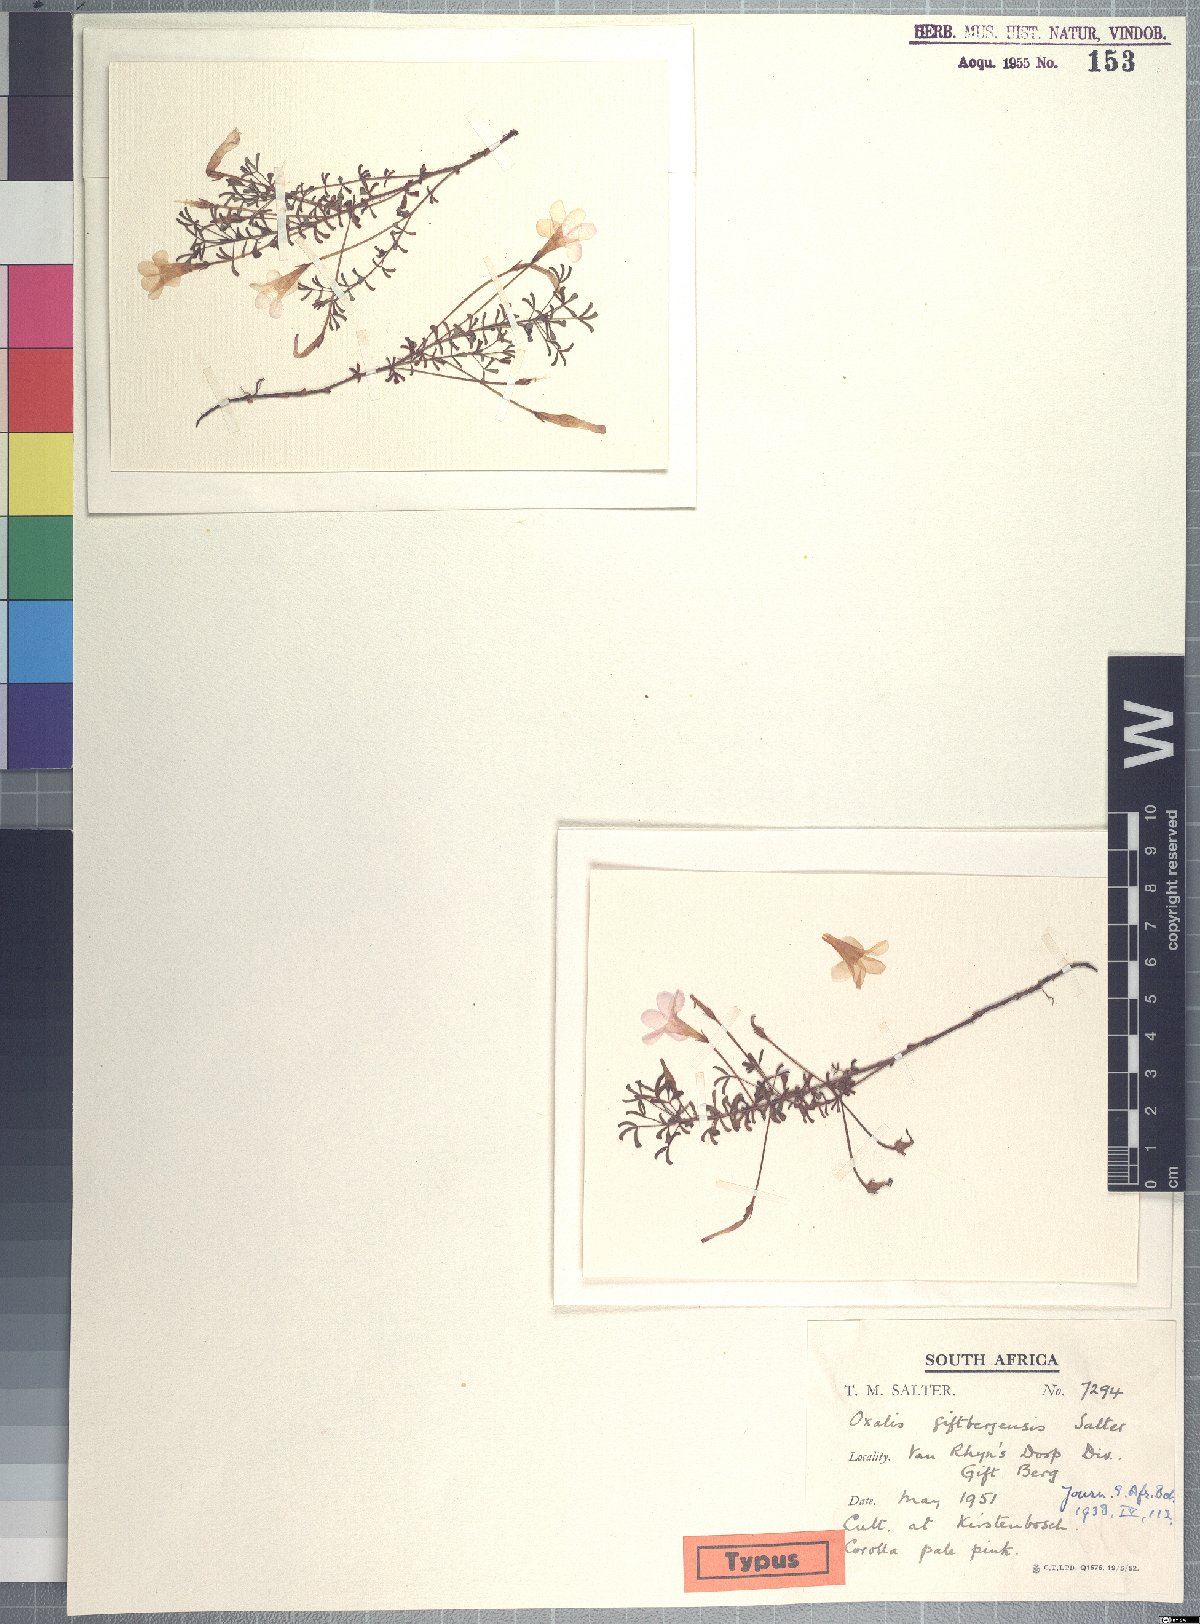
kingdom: Plantae
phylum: Tracheophyta
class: Magnoliopsida
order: Oxalidales
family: Oxalidaceae
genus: Oxalis
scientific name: Oxalis giftbergensis
